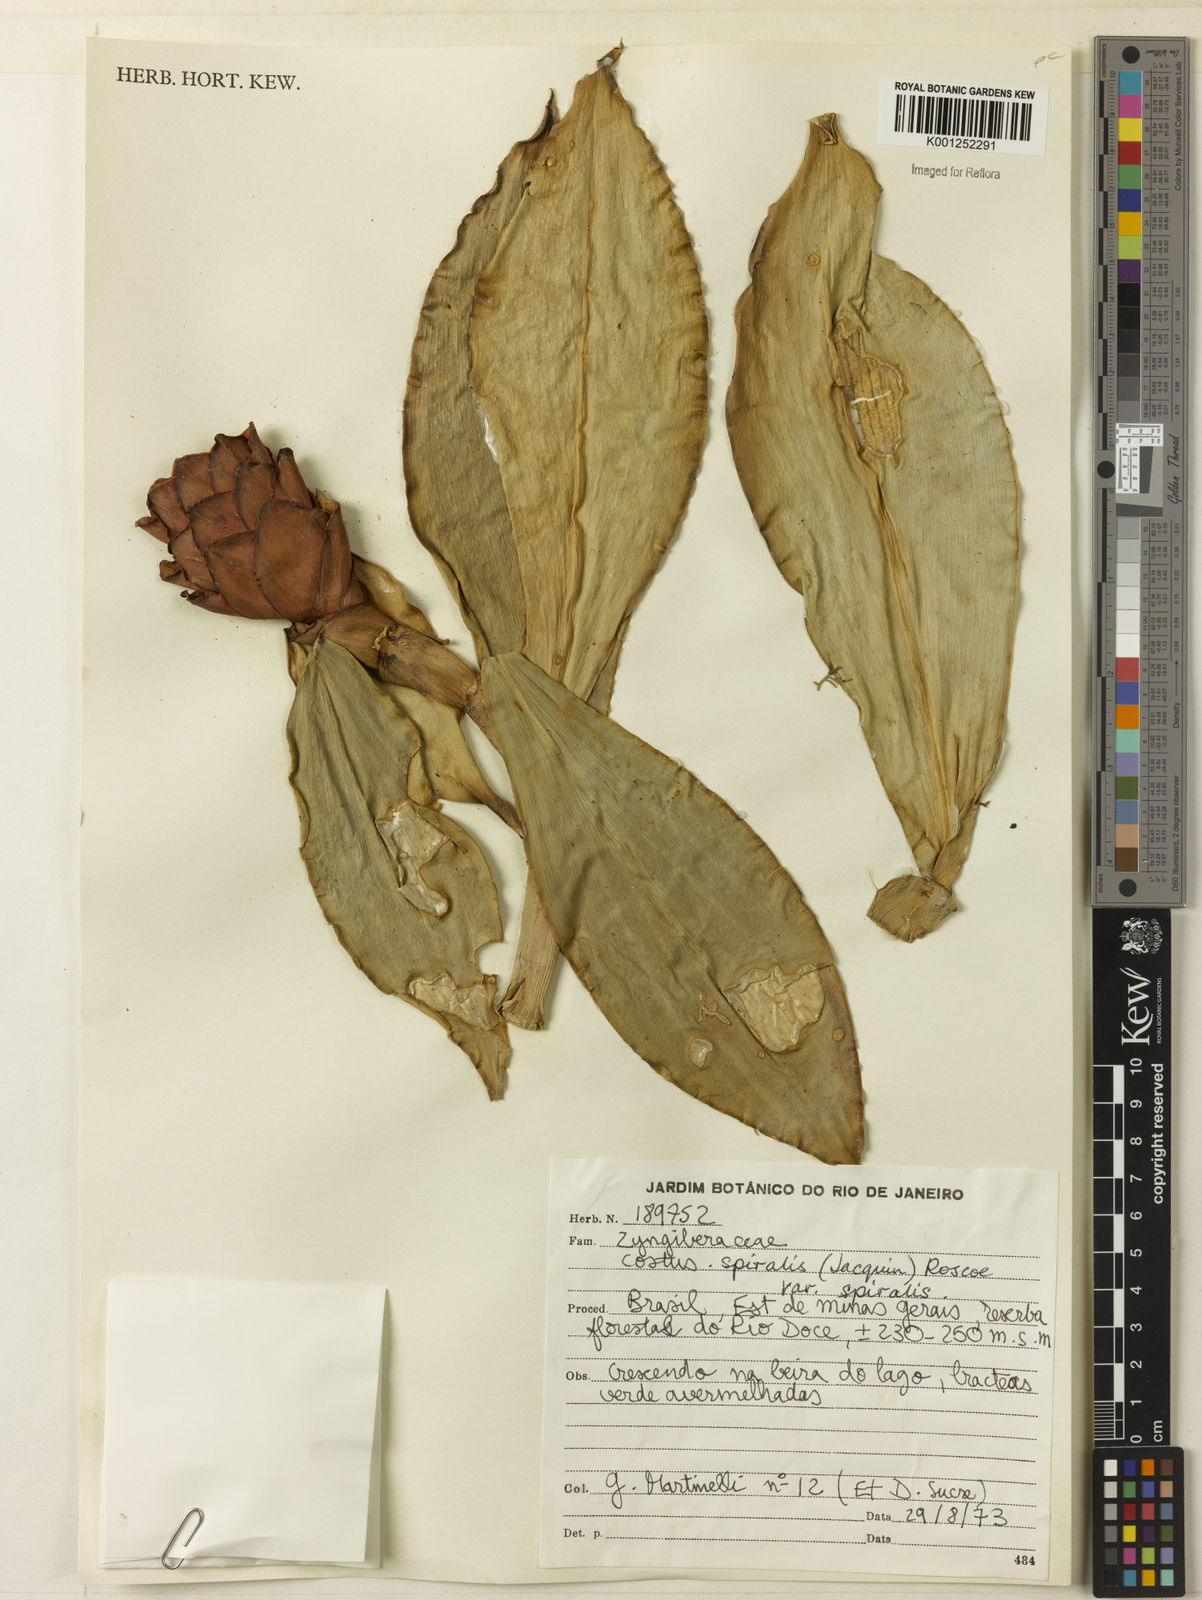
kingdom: Plantae
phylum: Tracheophyta
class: Liliopsida
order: Zingiberales
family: Costaceae
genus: Costus
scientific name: Costus spiralis
